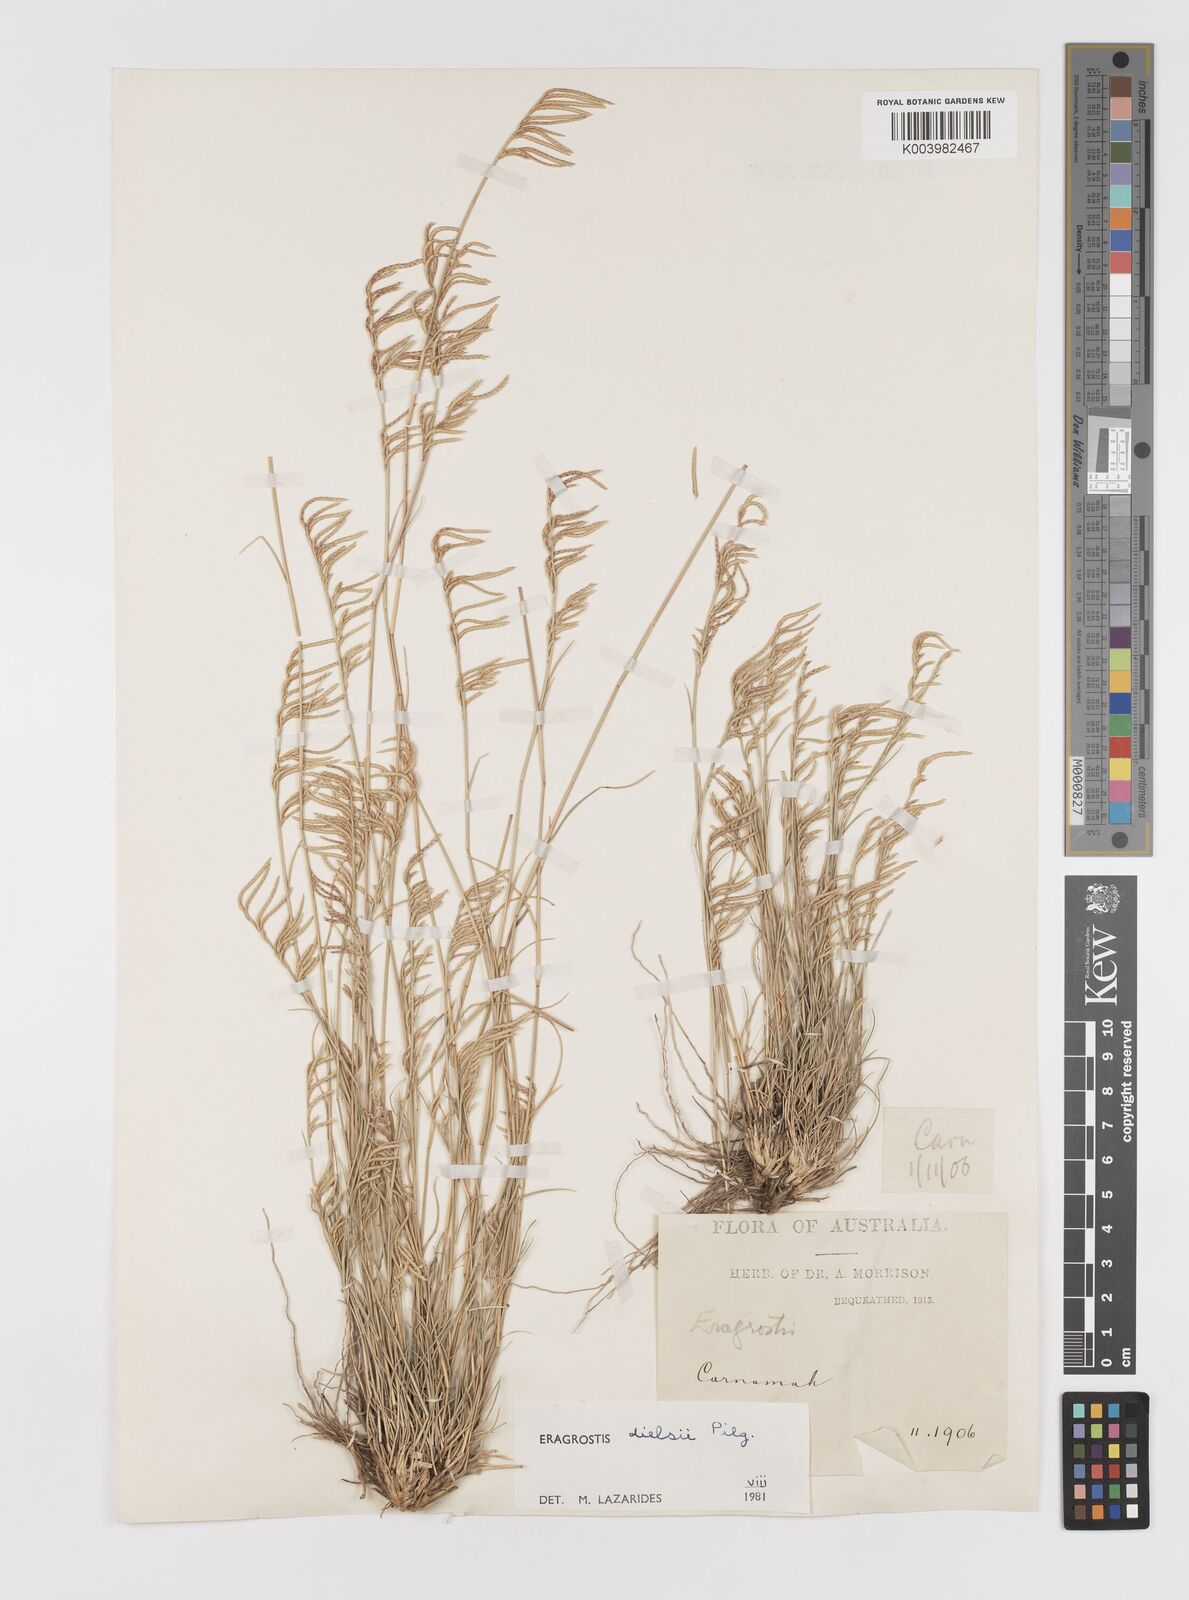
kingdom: Plantae
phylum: Tracheophyta
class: Liliopsida
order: Poales
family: Poaceae
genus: Eragrostis
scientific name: Eragrostis dielsii
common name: Lovegrass
